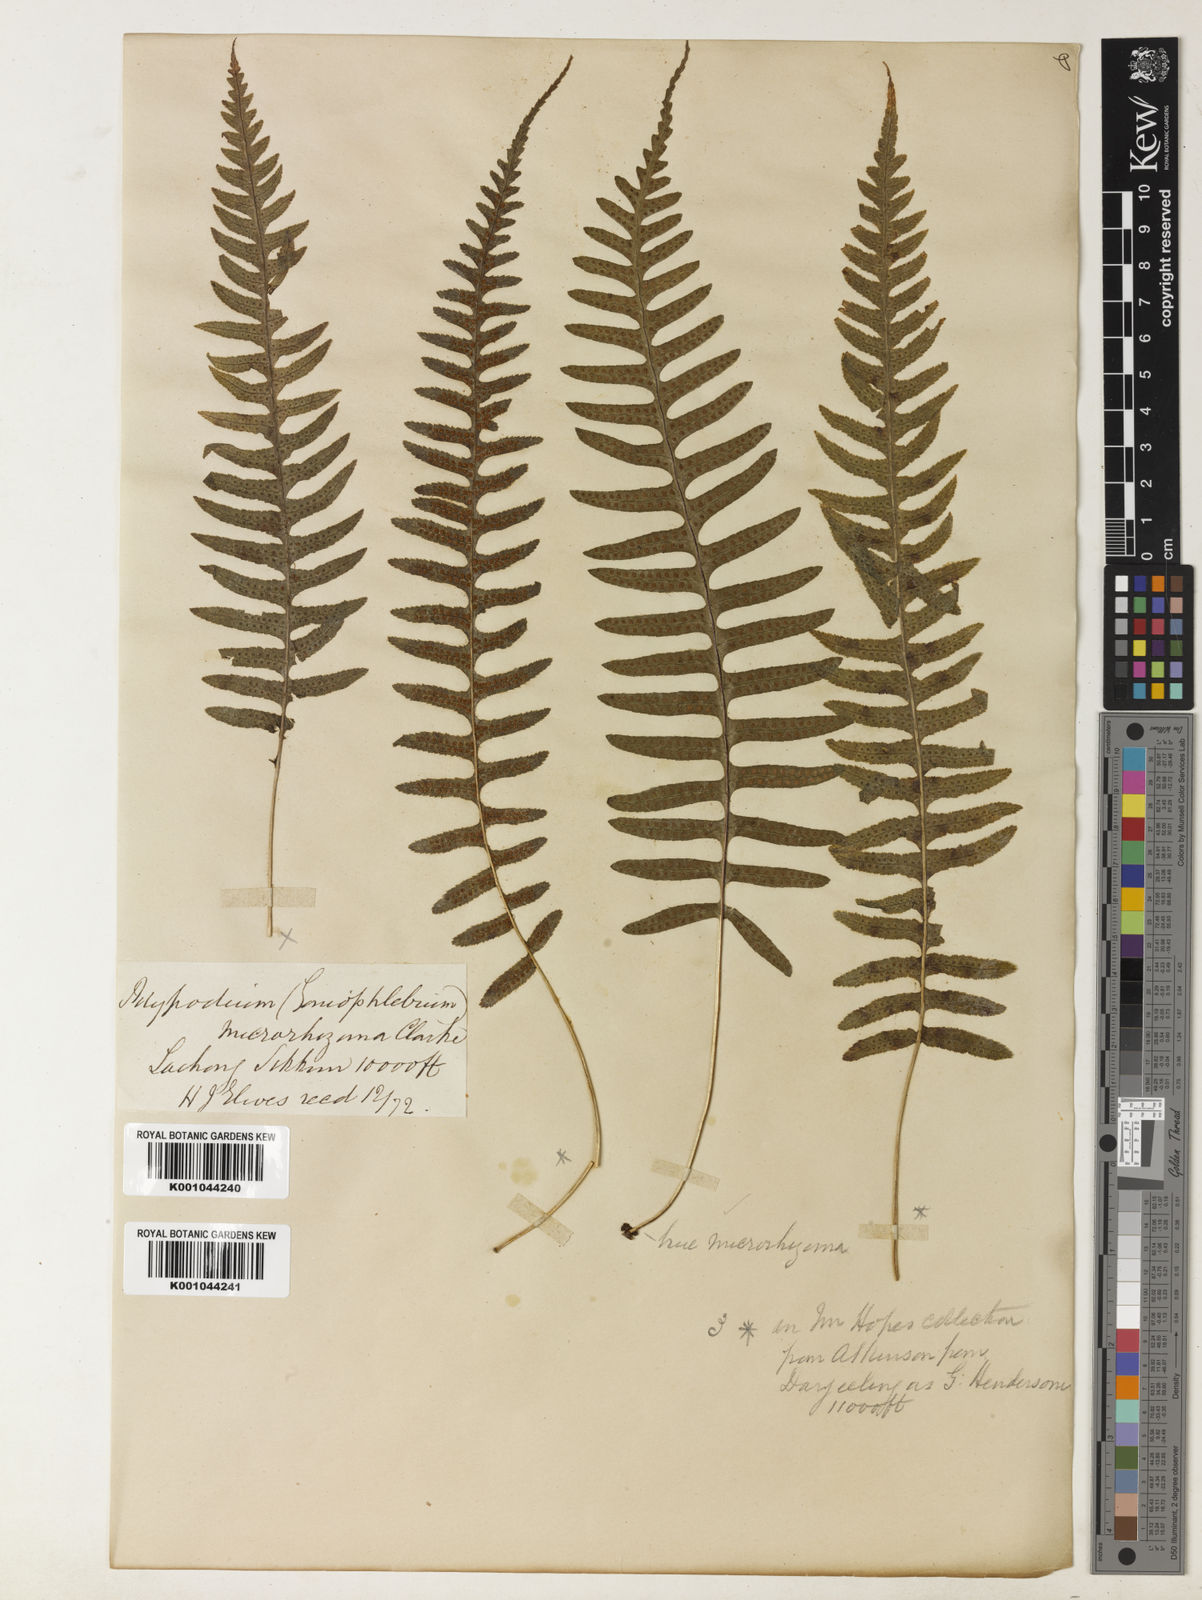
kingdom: Plantae
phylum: Tracheophyta
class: Polypodiopsida
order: Polypodiales
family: Polypodiaceae
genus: Goniophlebium
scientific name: Goniophlebium hendersonii
